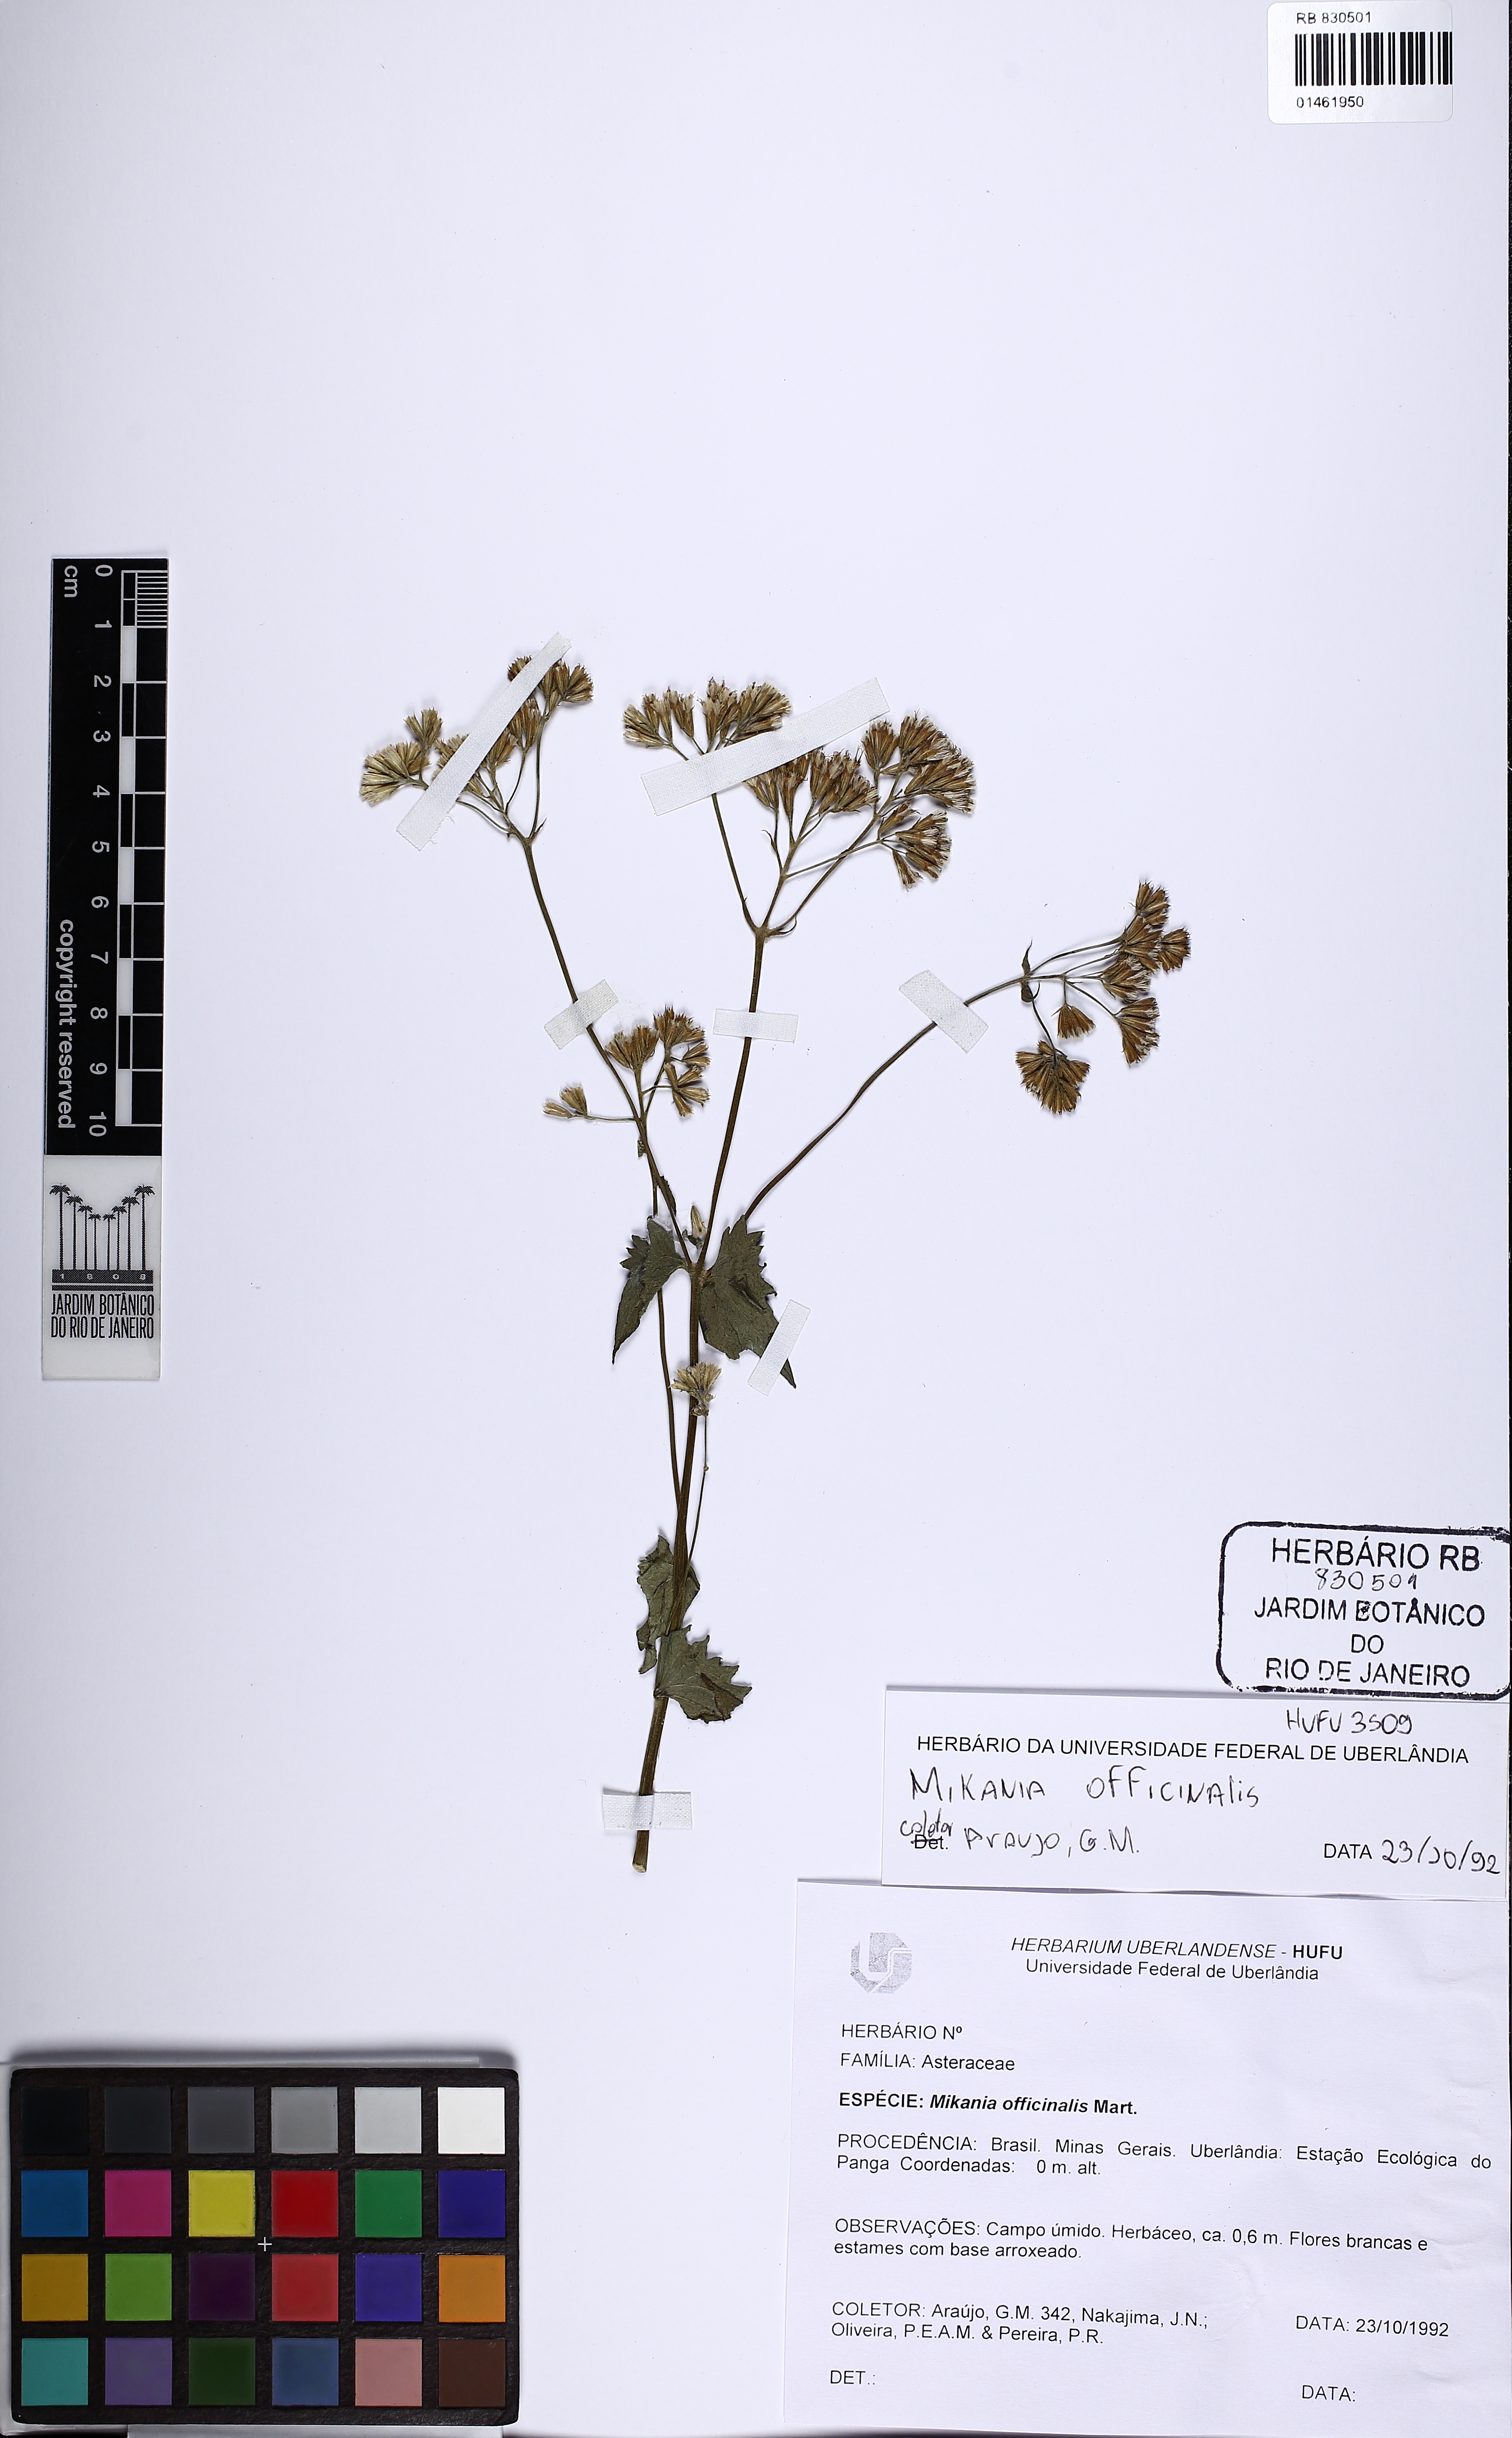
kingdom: Plantae
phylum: Tracheophyta
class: Magnoliopsida
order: Asterales
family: Asteraceae
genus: Mikania
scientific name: Mikania officinalis
